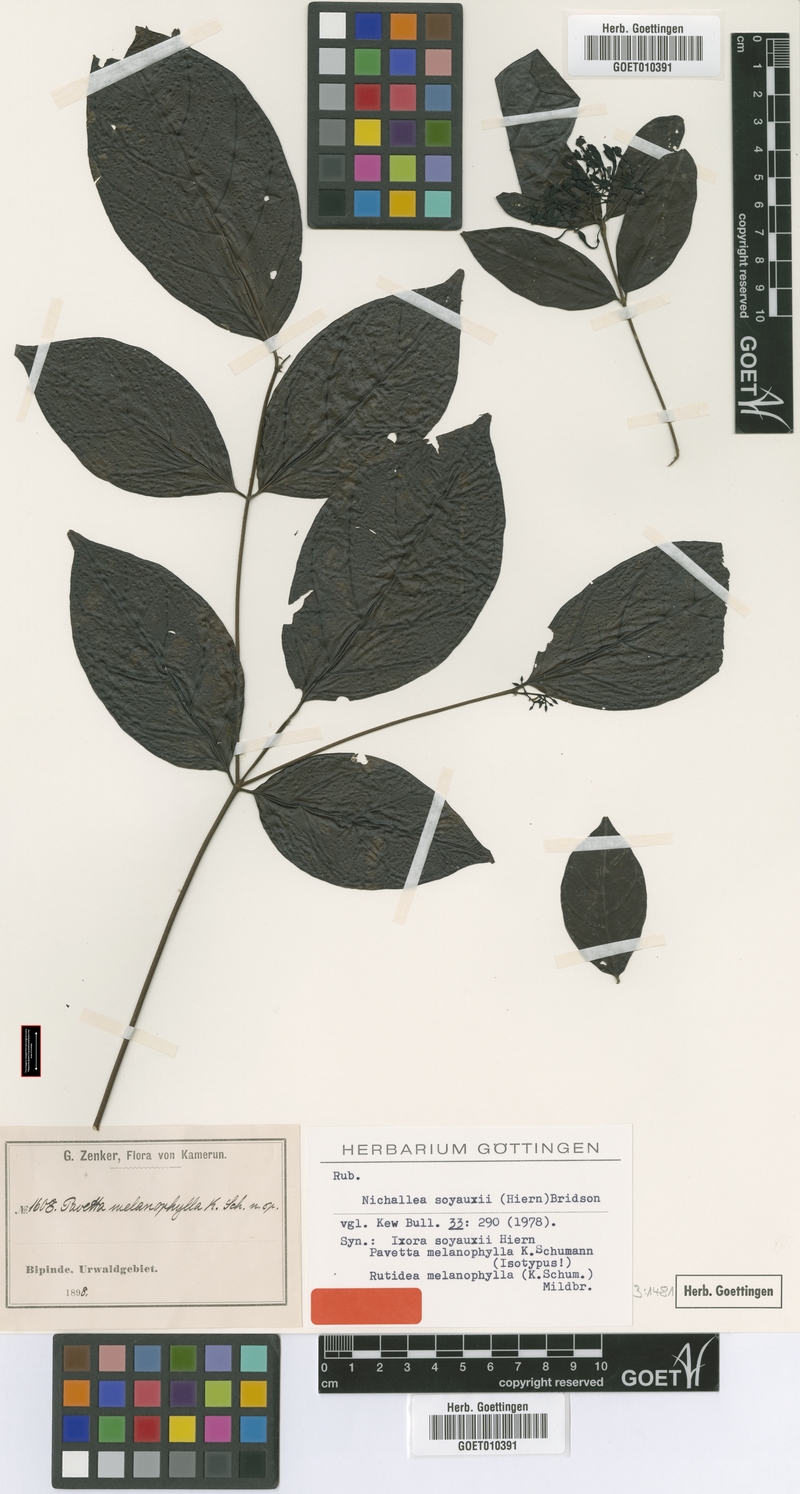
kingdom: Plantae
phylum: Tracheophyta
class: Magnoliopsida
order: Gentianales
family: Rubiaceae
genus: Nichallea
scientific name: Nichallea soyauxii
